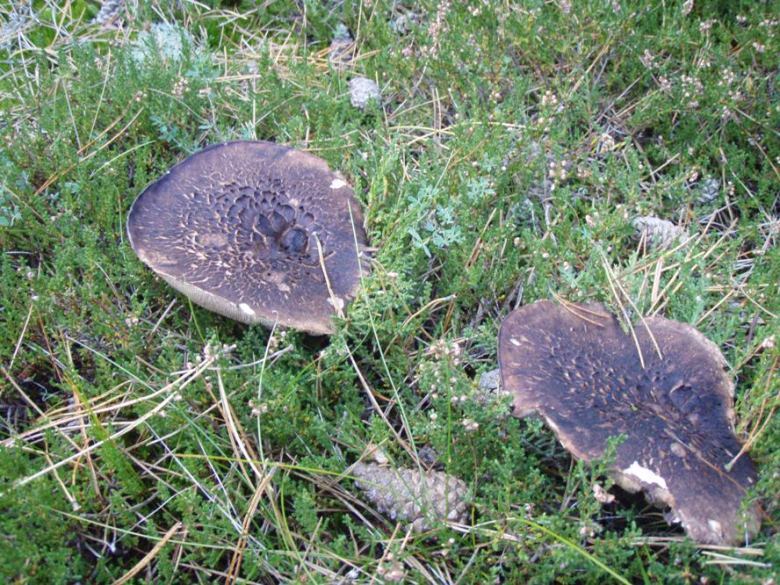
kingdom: Fungi
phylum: Basidiomycota
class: Agaricomycetes
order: Thelephorales
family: Bankeraceae
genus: Sarcodon
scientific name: Sarcodon squamosus
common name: småskællet kødpigsvamp
